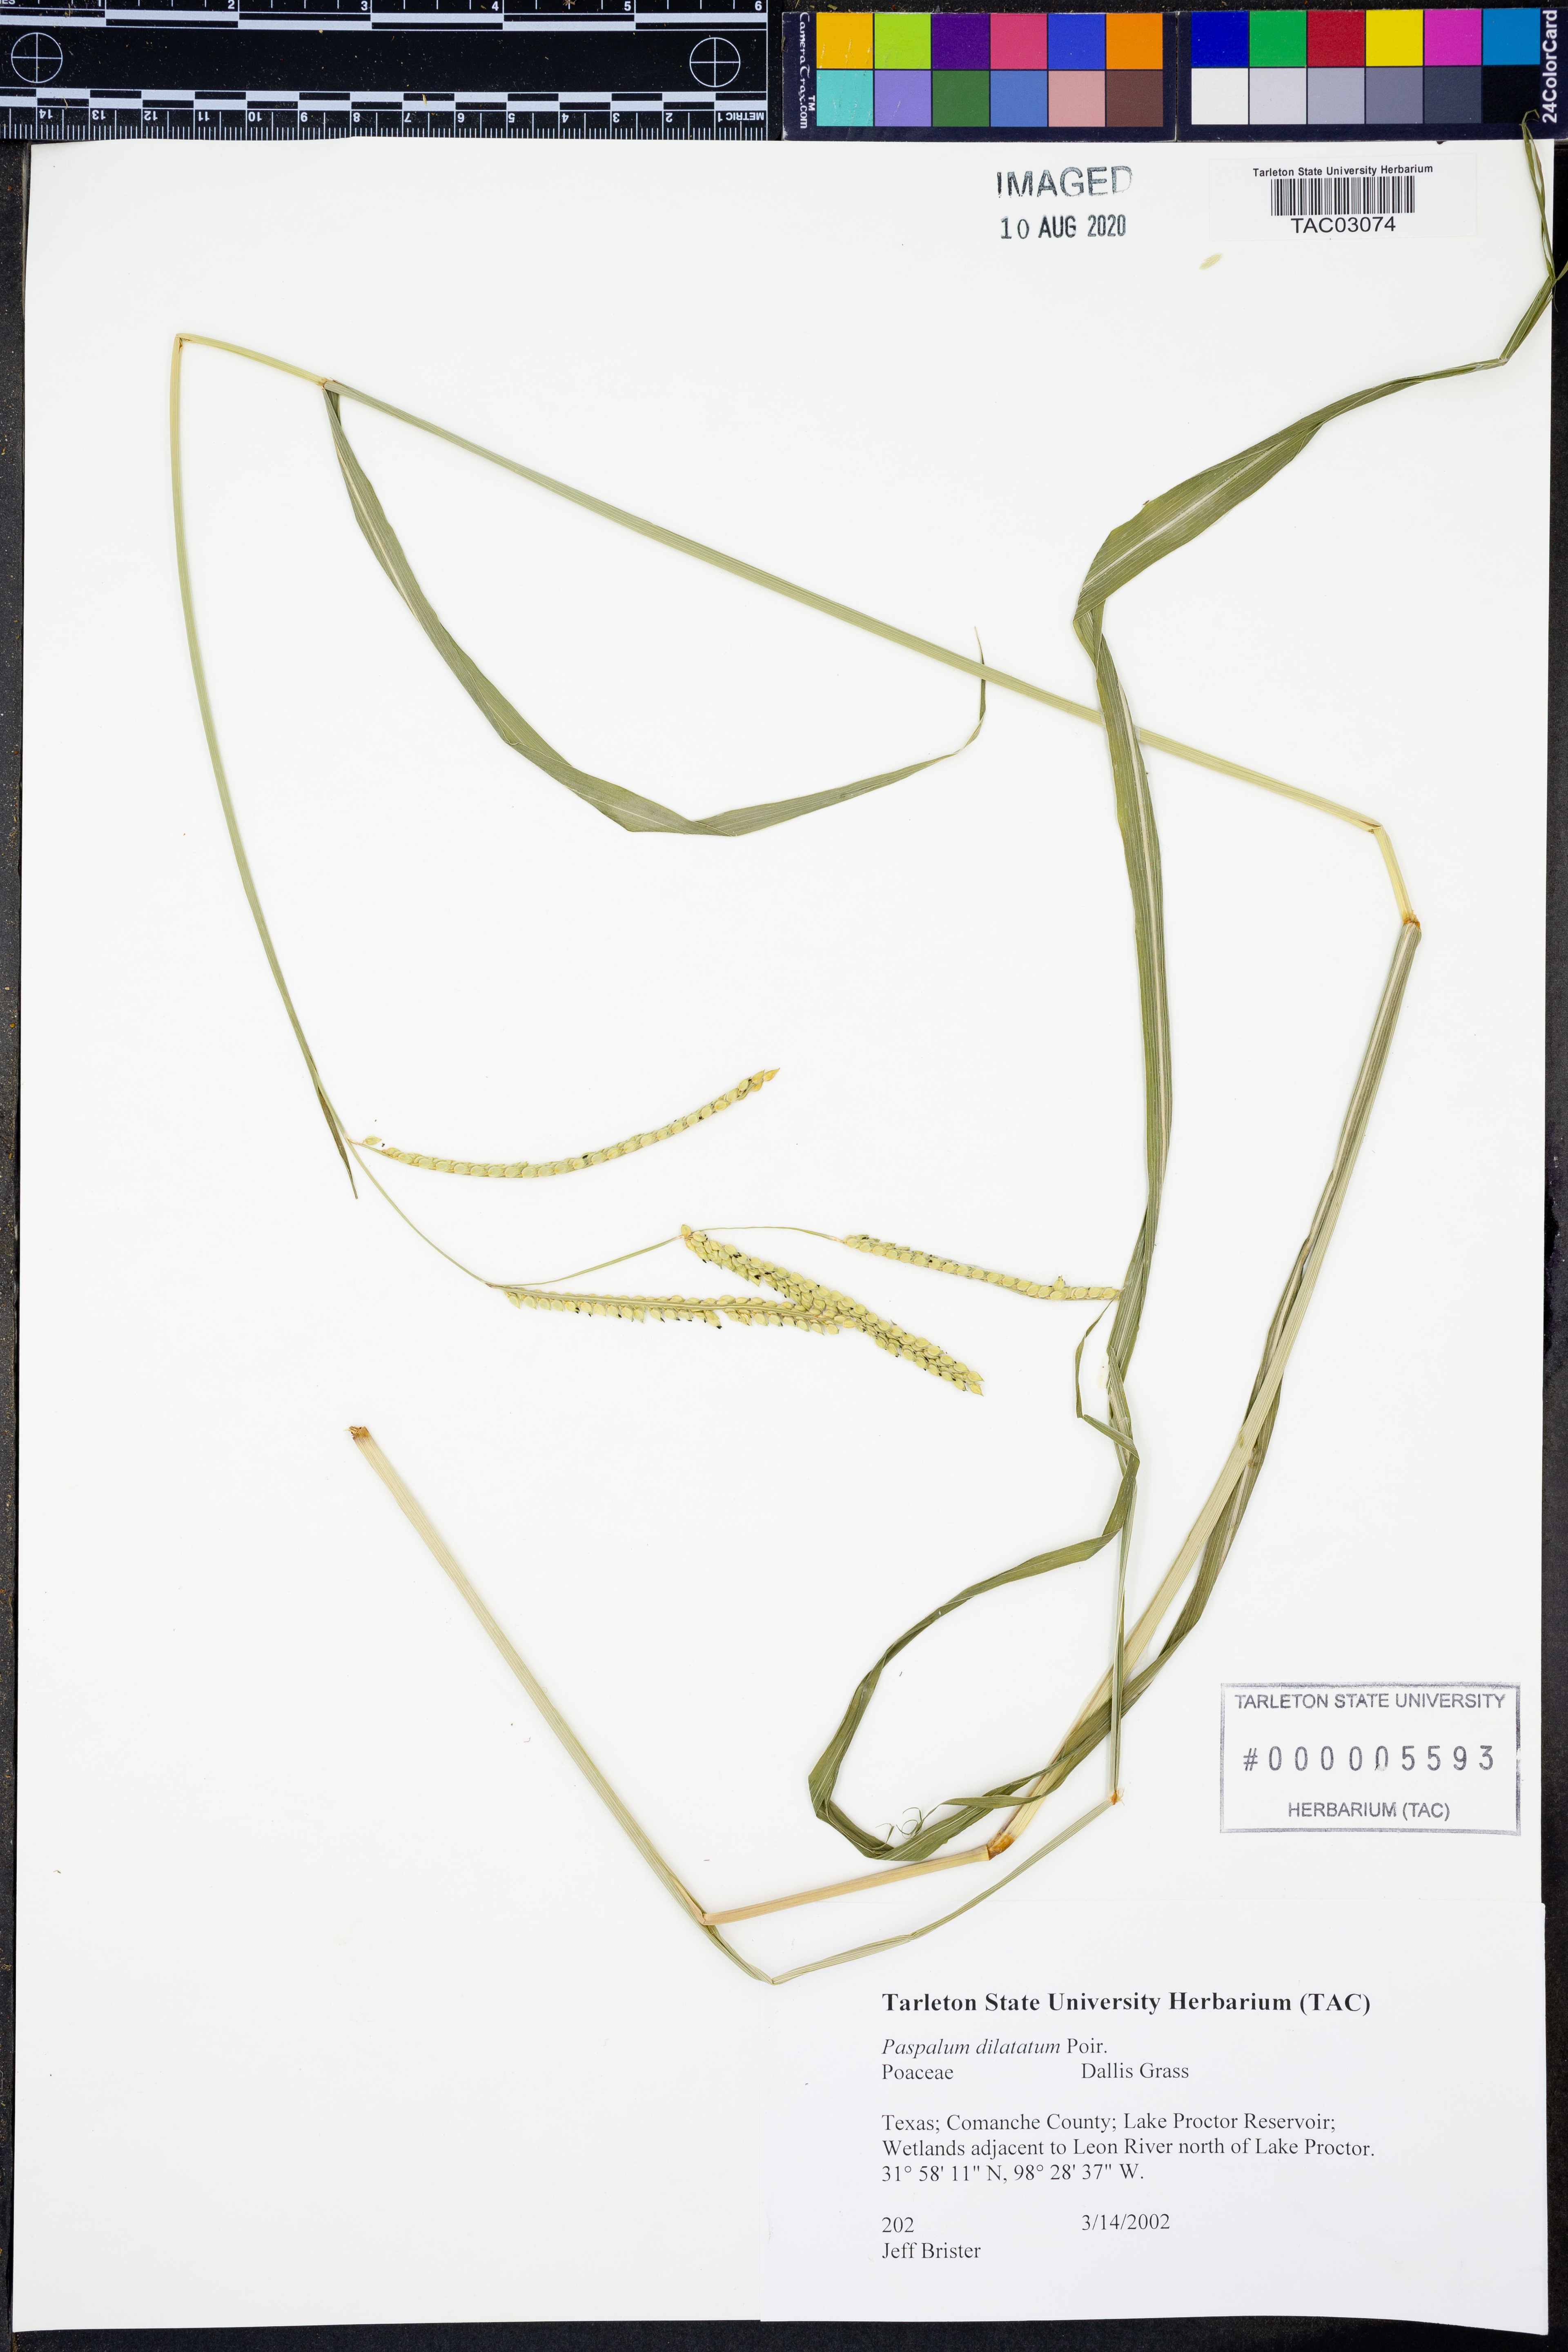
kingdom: Plantae
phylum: Tracheophyta
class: Liliopsida
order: Poales
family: Poaceae
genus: Paspalum
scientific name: Paspalum dilatatum
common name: Dallisgrass
